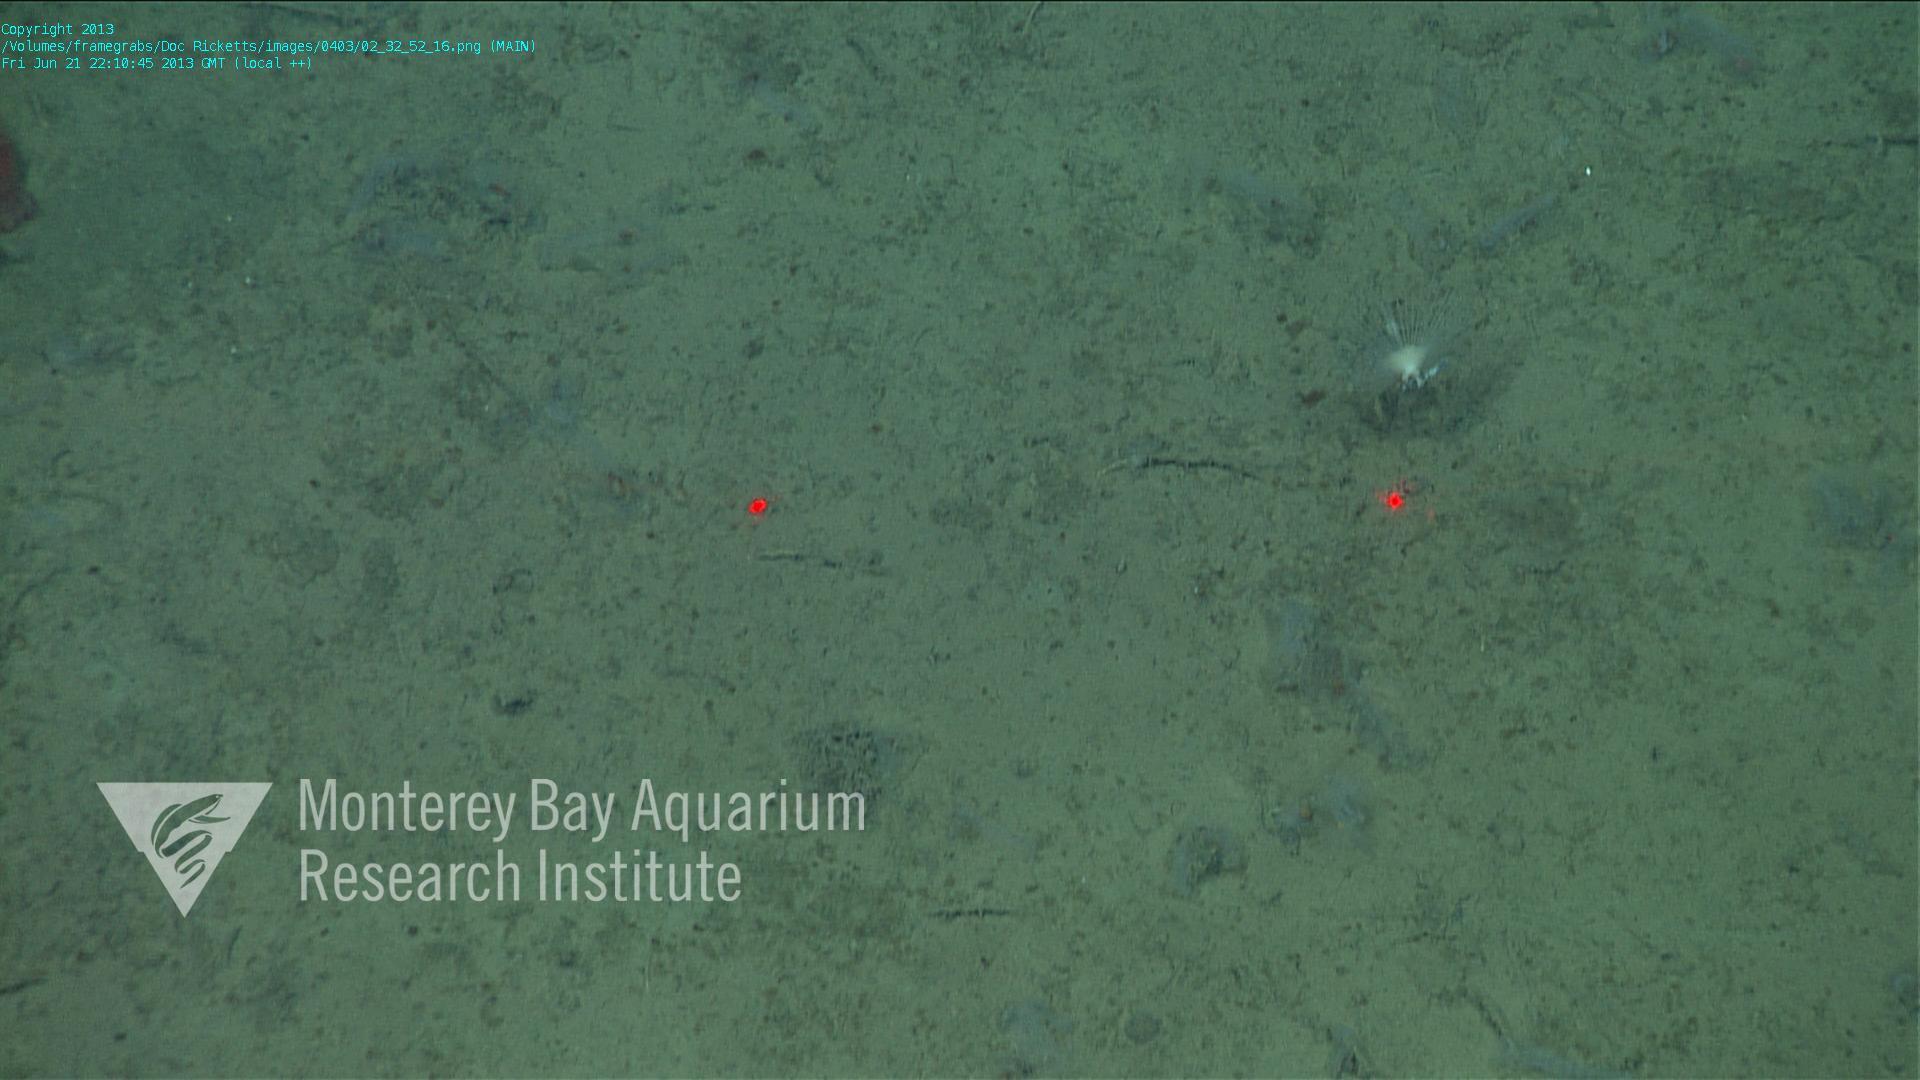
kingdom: Animalia
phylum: Porifera
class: Demospongiae
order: Poecilosclerida
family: Cladorhizidae
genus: Cladorhiza
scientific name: Cladorhiza
